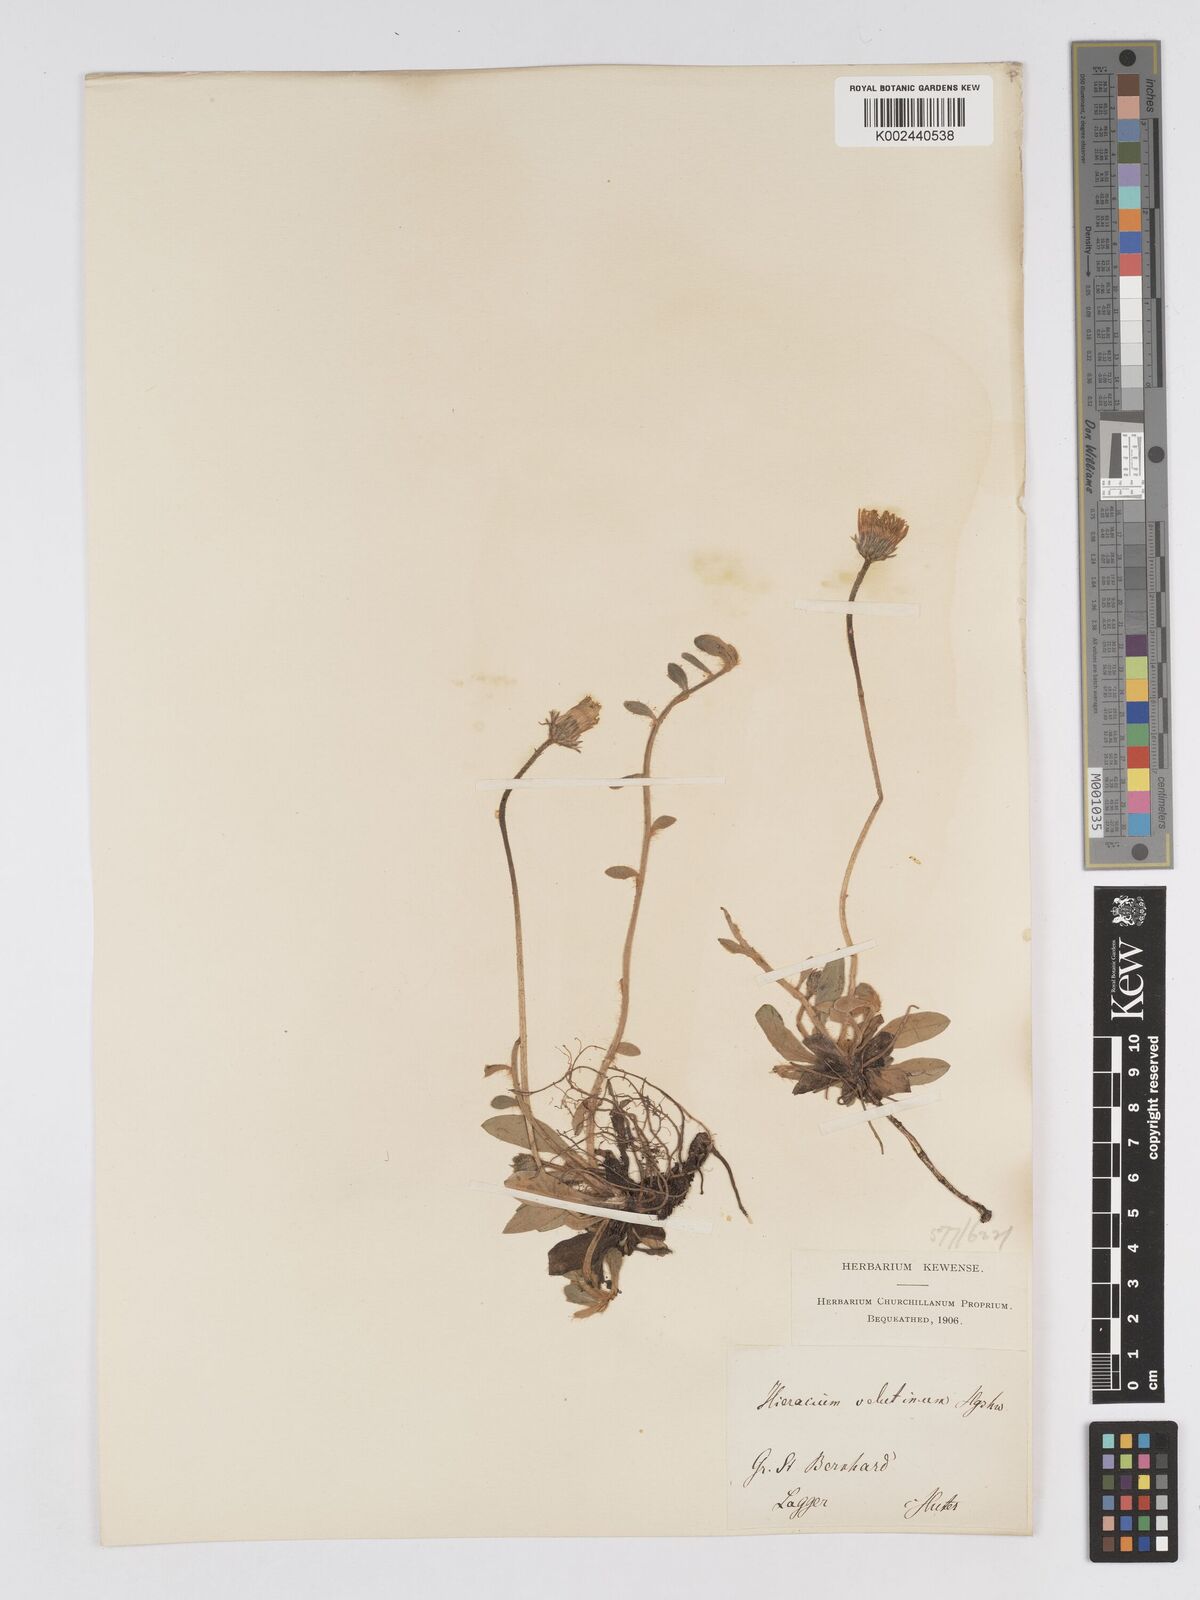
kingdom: Plantae
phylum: Tracheophyta
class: Magnoliopsida
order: Asterales
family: Asteraceae
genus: Pilosella
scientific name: Pilosella velutina
